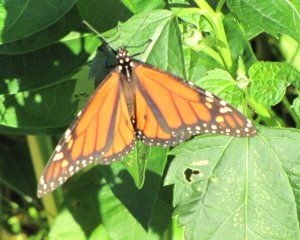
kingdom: Animalia
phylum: Arthropoda
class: Insecta
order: Lepidoptera
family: Nymphalidae
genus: Danaus
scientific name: Danaus plexippus
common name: Monarch
